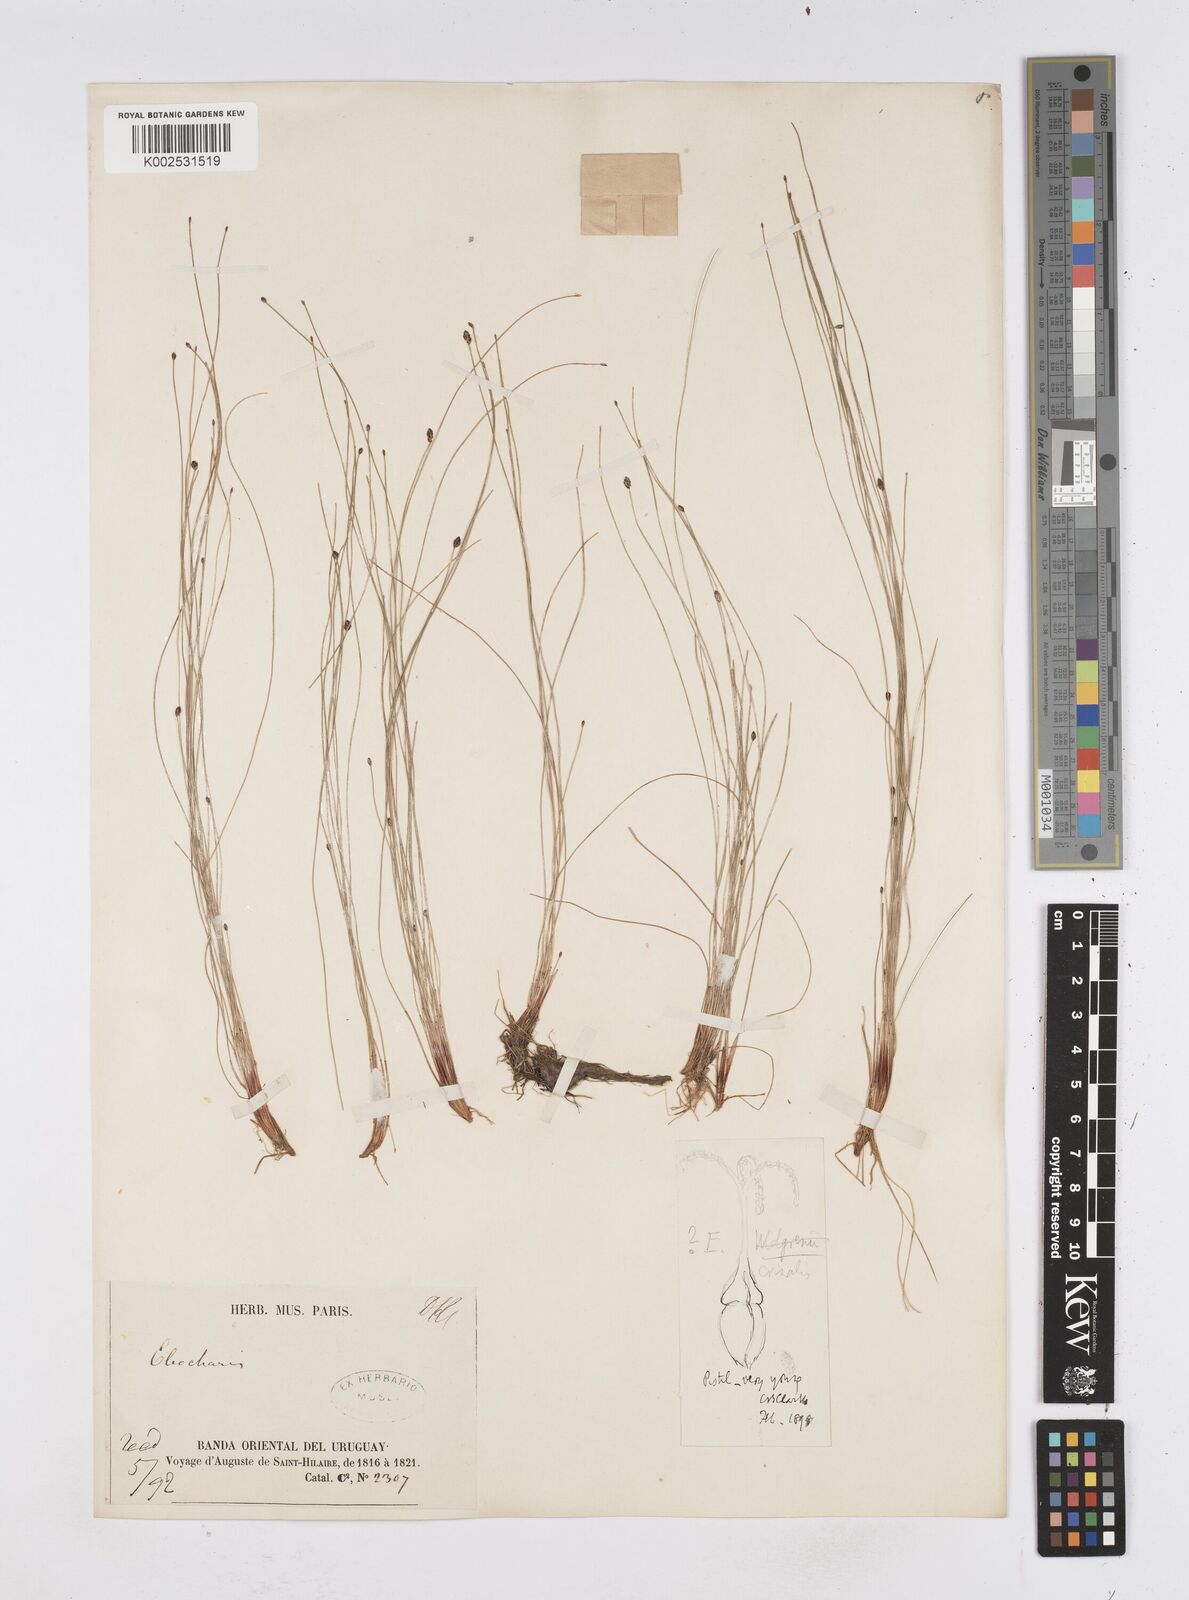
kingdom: Plantae
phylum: Tracheophyta
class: Liliopsida
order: Poales
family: Cyperaceae
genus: Eleocharis
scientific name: Eleocharis crinalis
